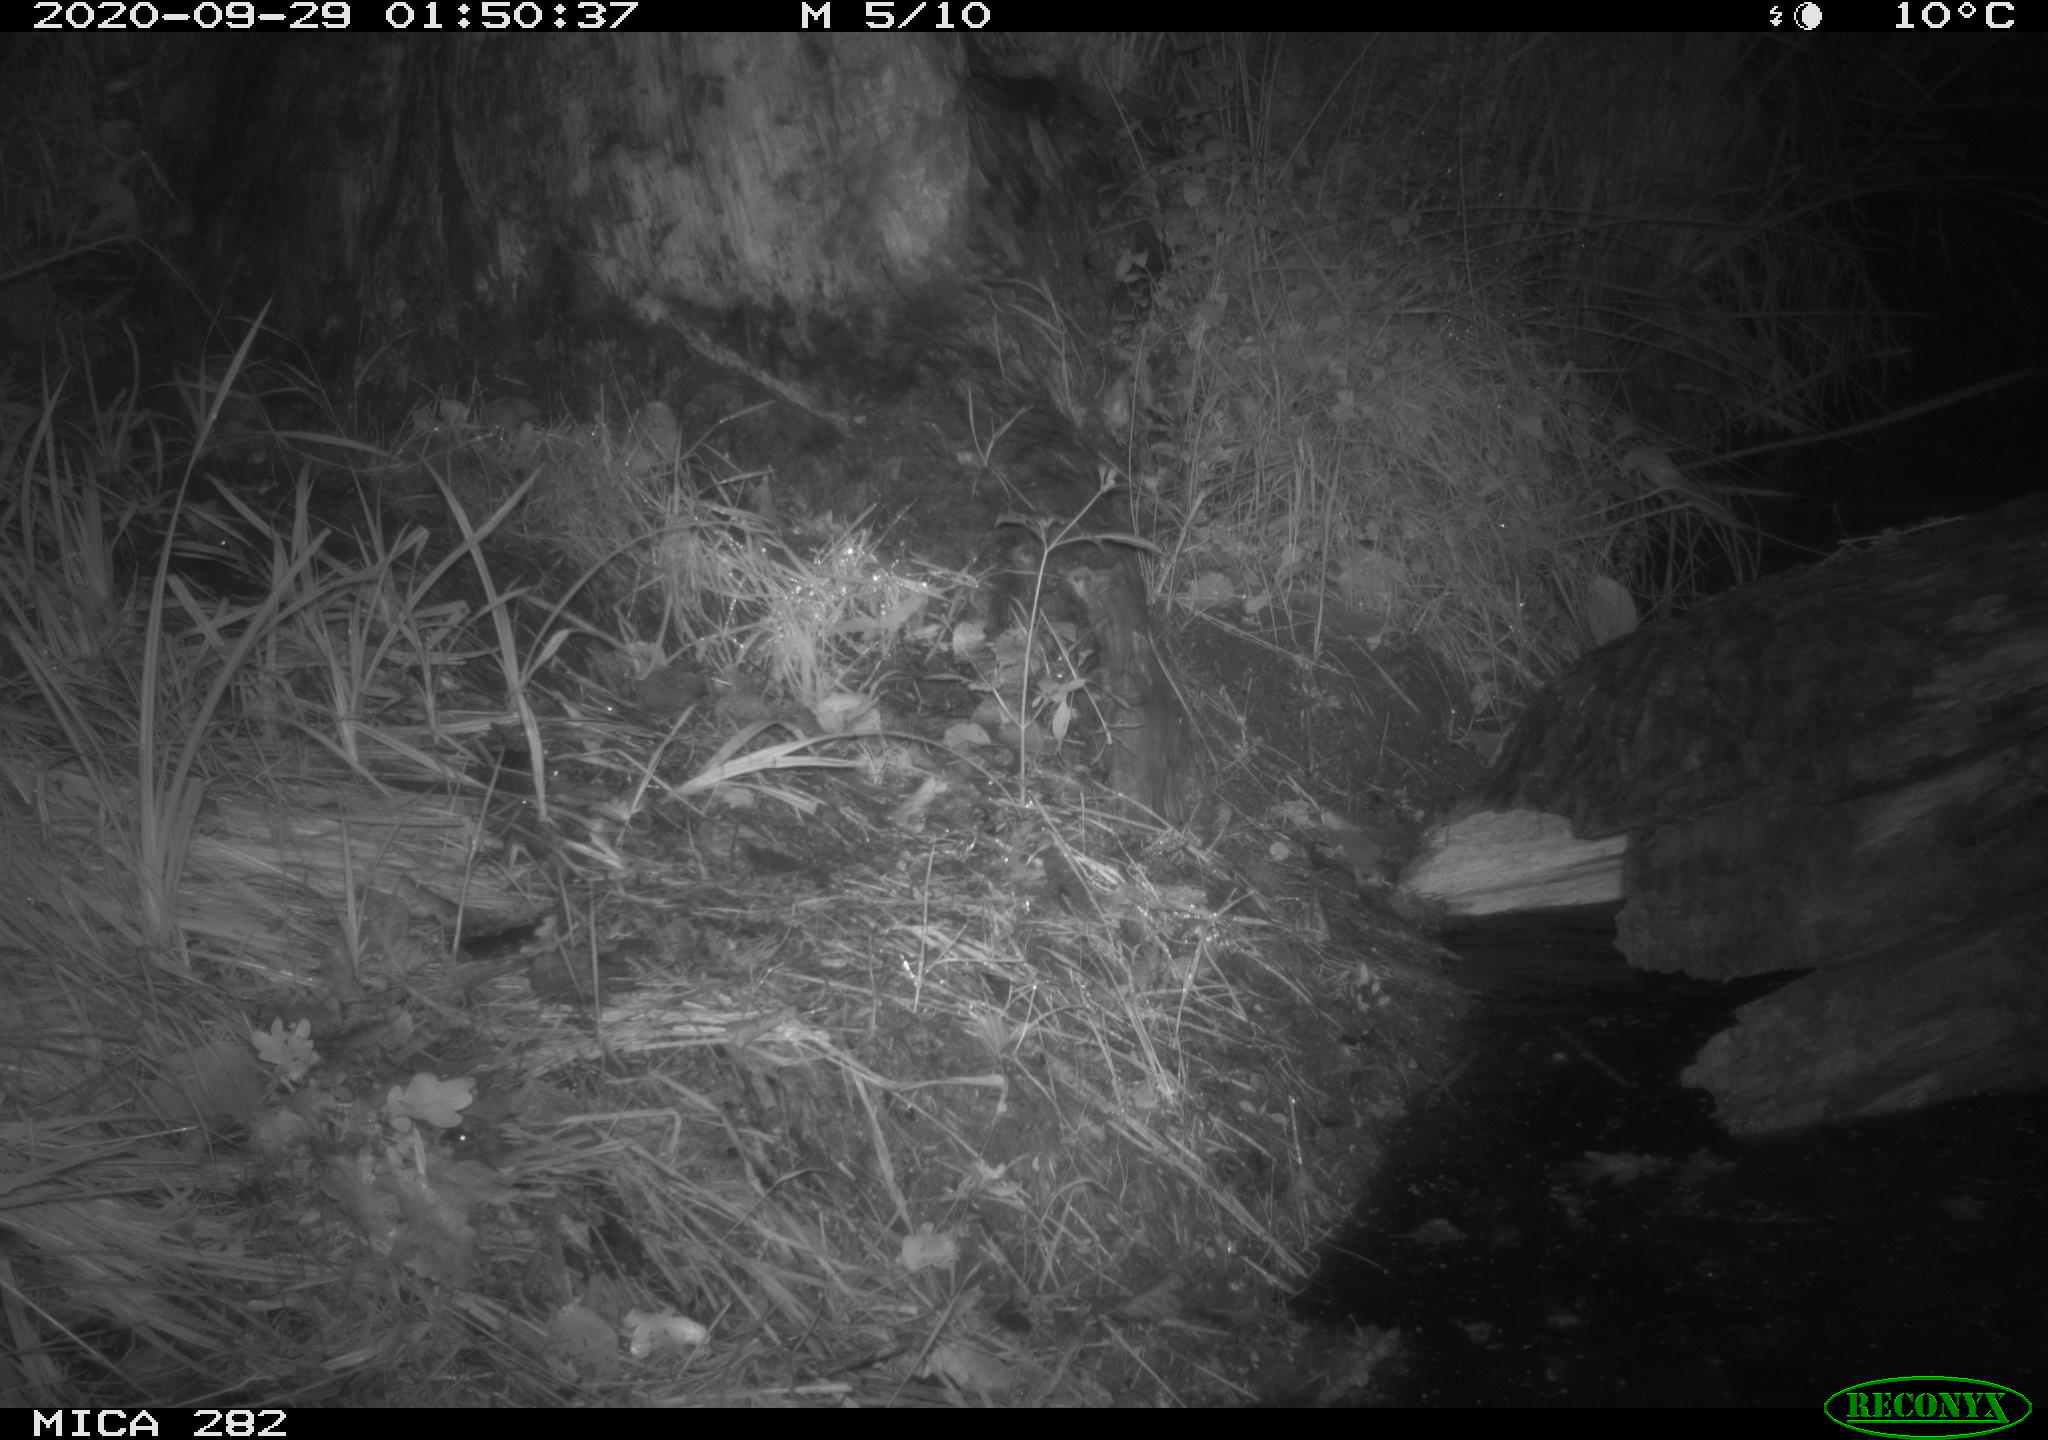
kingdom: Animalia
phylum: Chordata
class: Mammalia
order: Carnivora
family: Canidae
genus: Vulpes
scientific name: Vulpes vulpes
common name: Red fox
